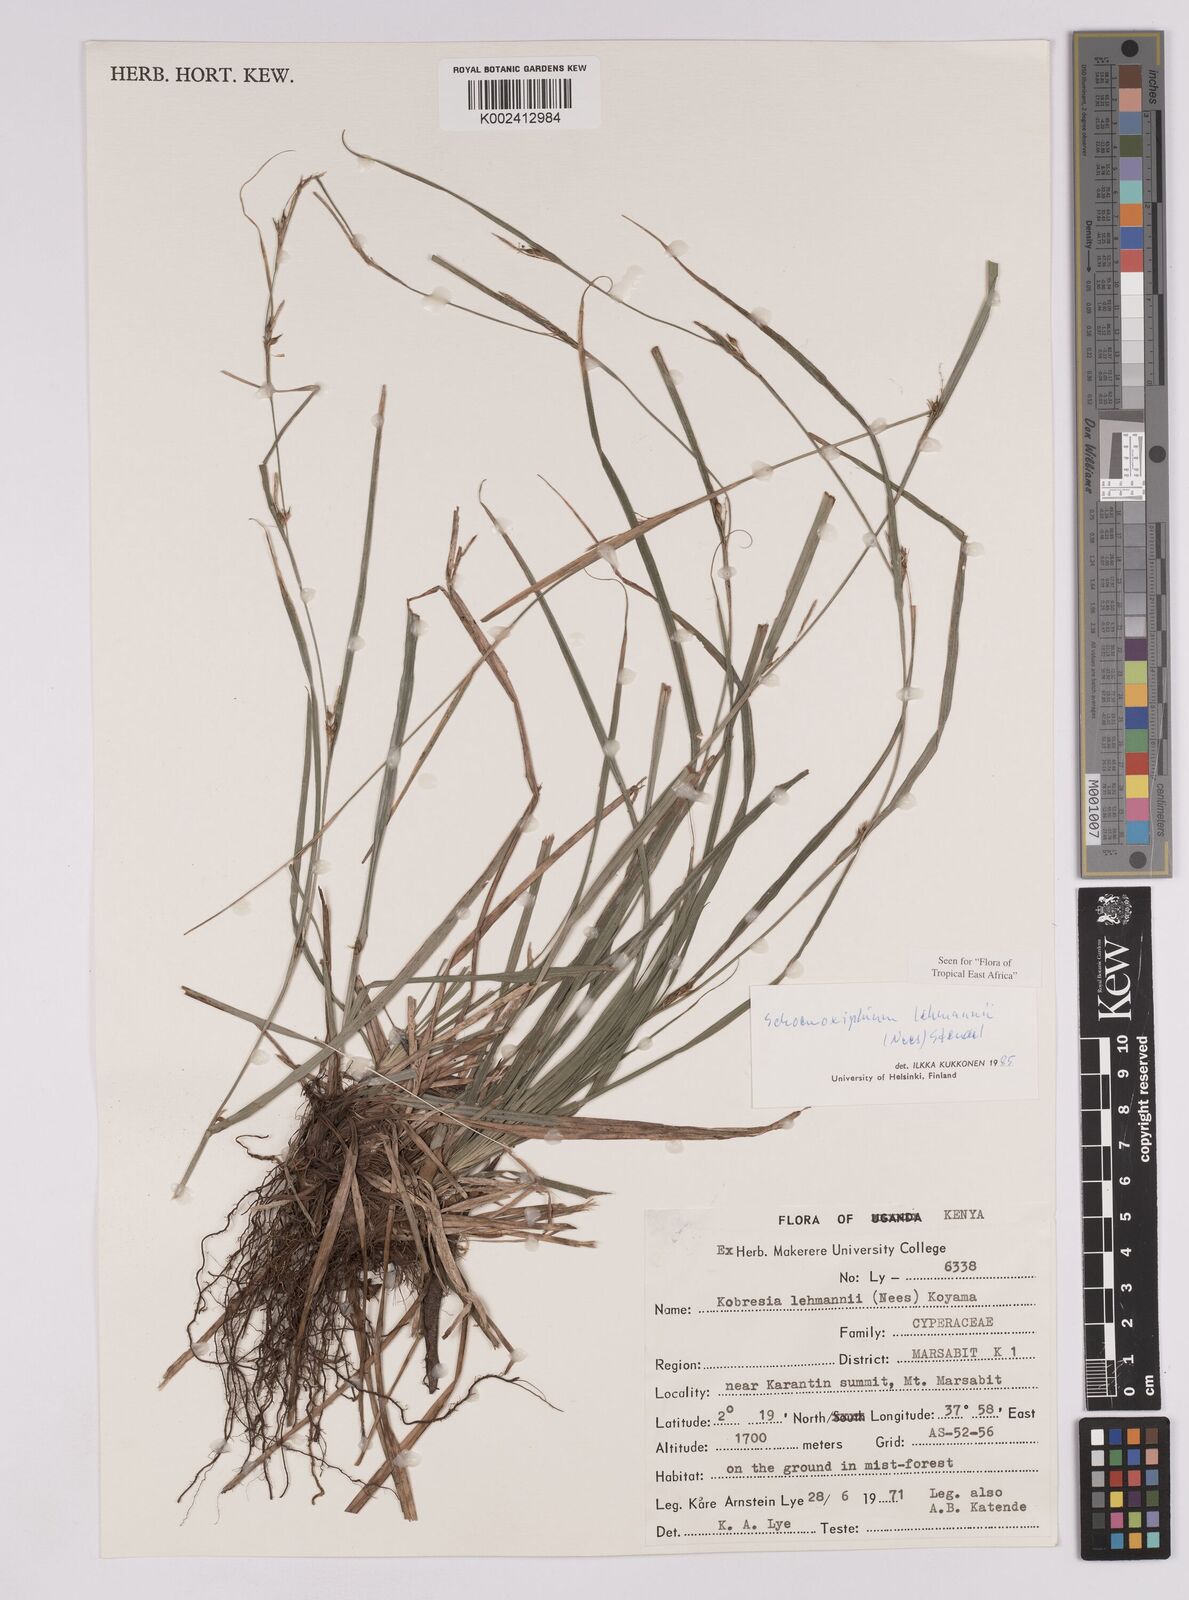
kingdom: Plantae
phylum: Tracheophyta
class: Liliopsida
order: Poales
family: Cyperaceae
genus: Carex
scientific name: Carex uhligii
